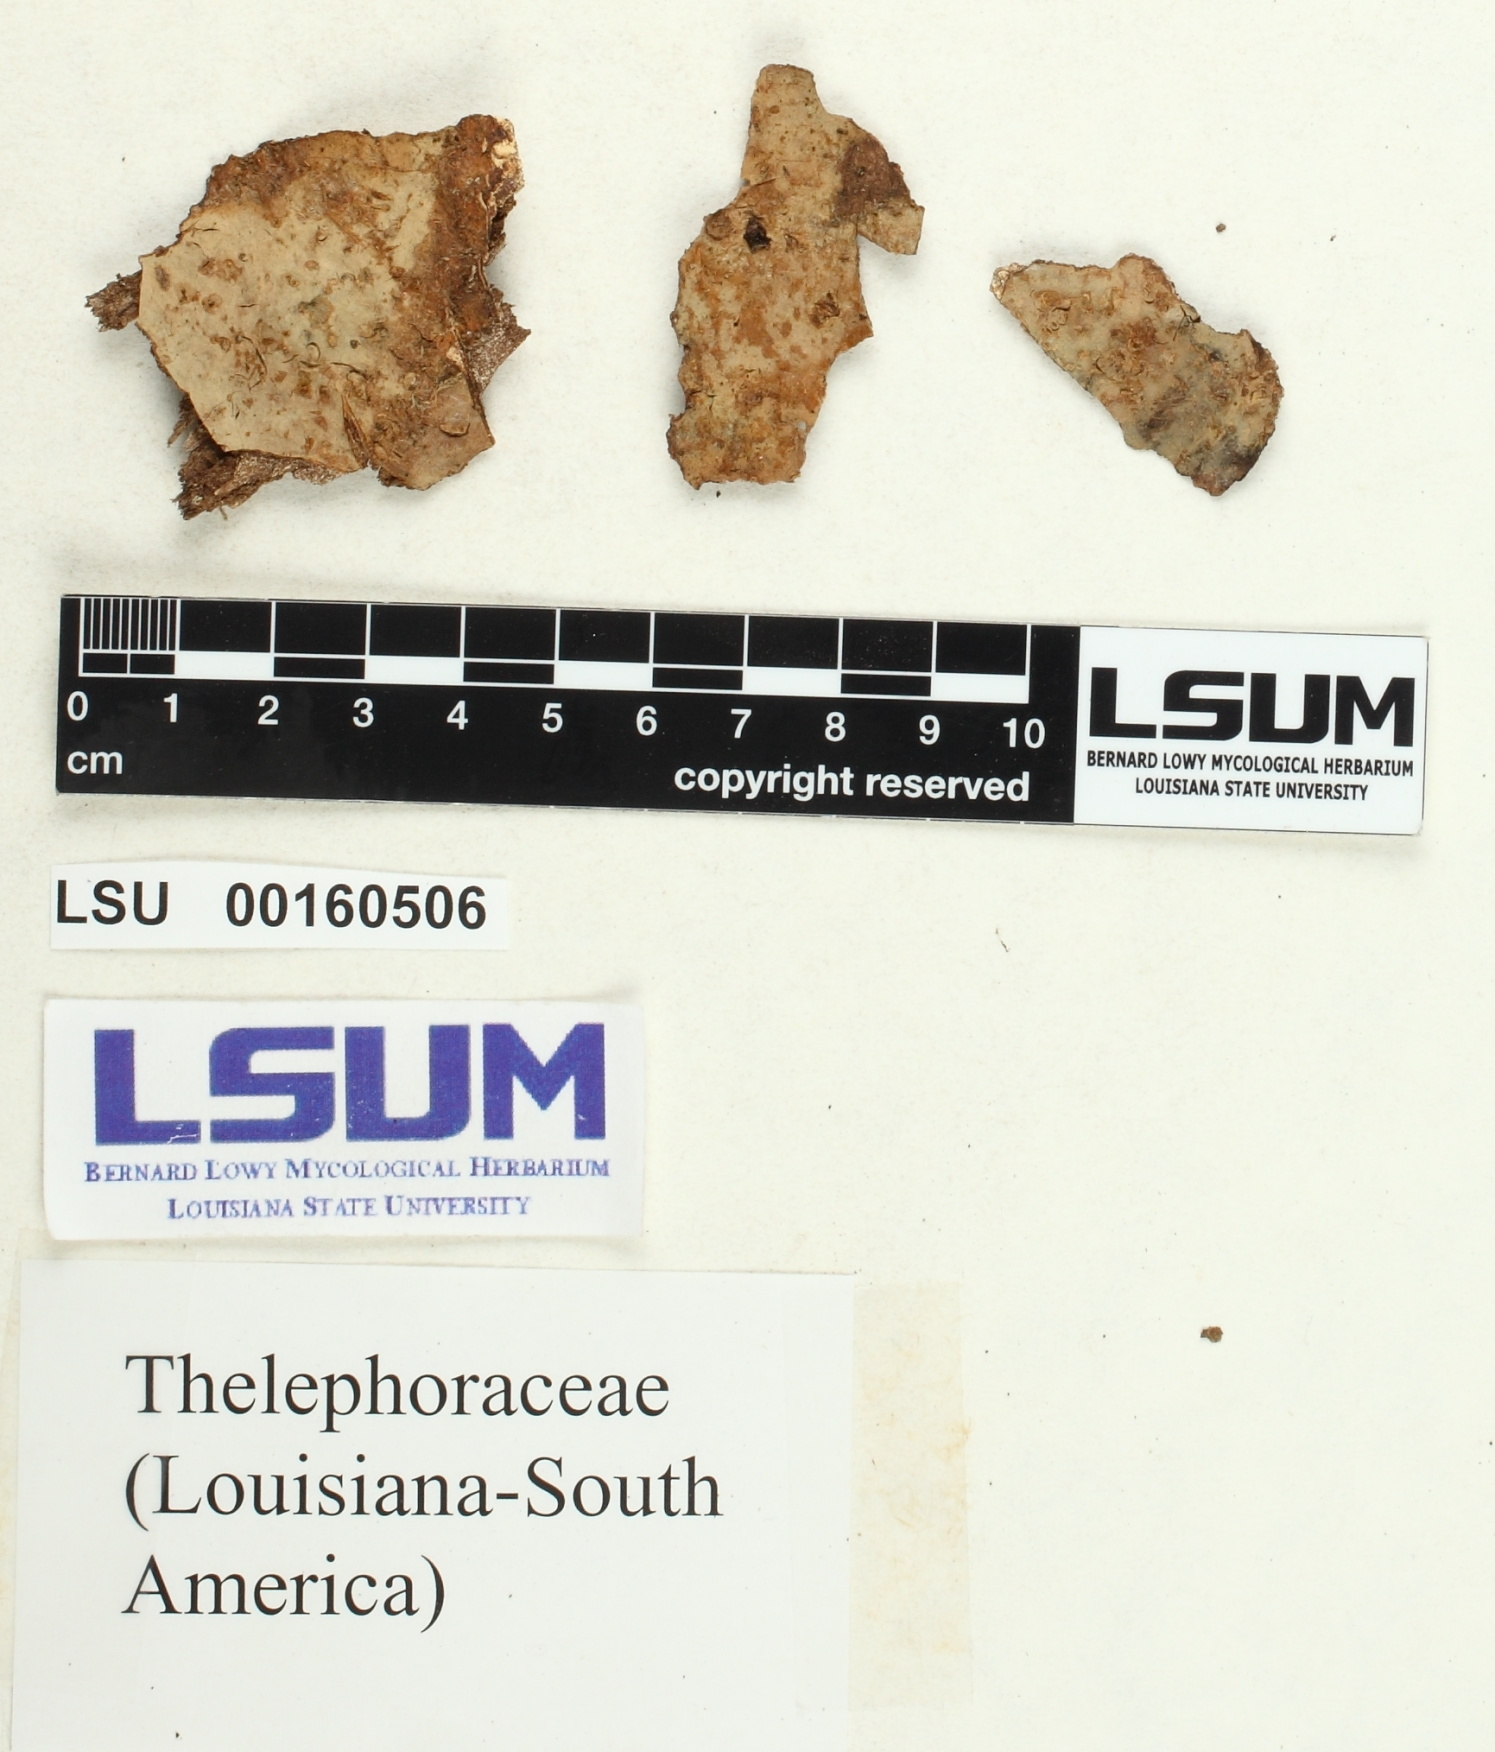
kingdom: Fungi
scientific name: Fungi
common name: Fungi
